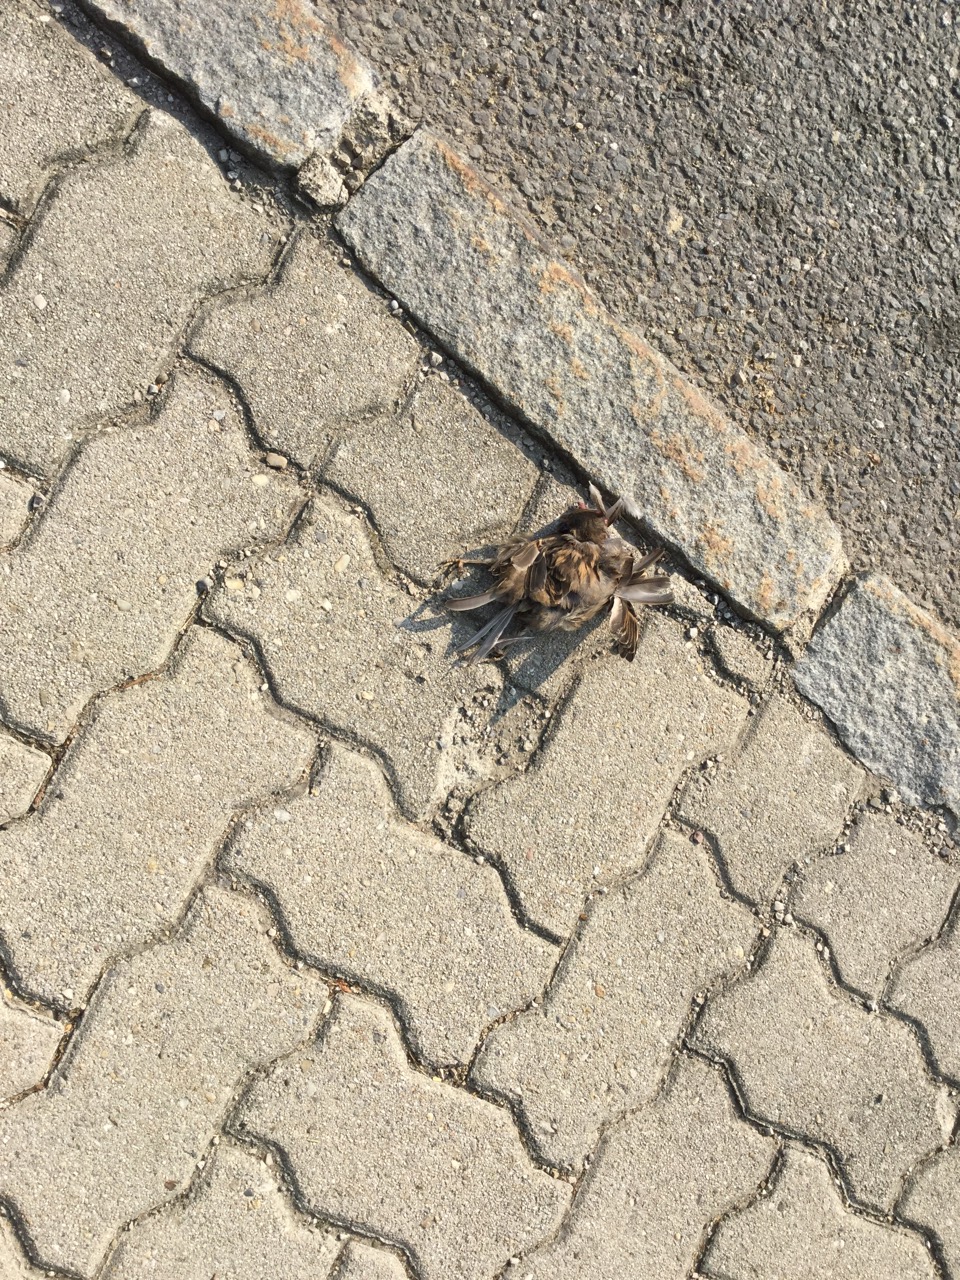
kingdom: Animalia
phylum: Chordata
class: Aves
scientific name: Aves
